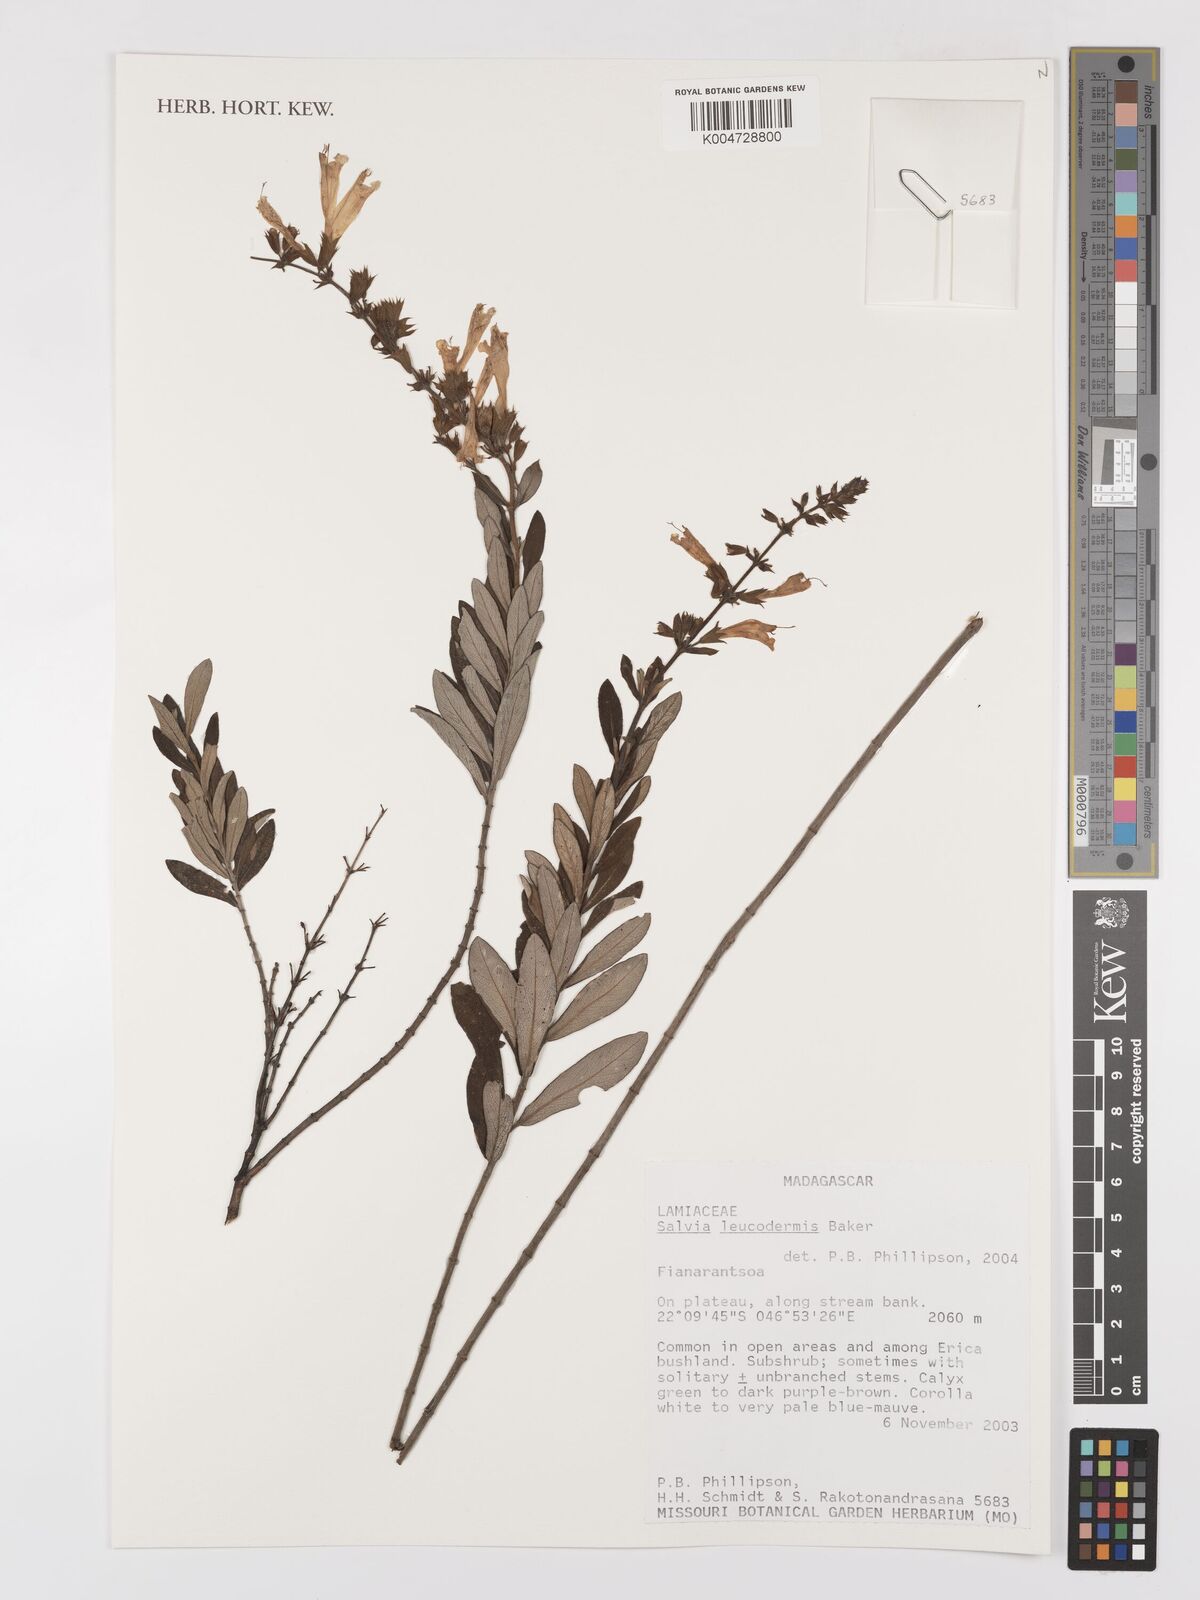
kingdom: Plantae
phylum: Tracheophyta
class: Magnoliopsida
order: Lamiales
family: Lamiaceae
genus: Salvia
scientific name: Salvia leucodermis
